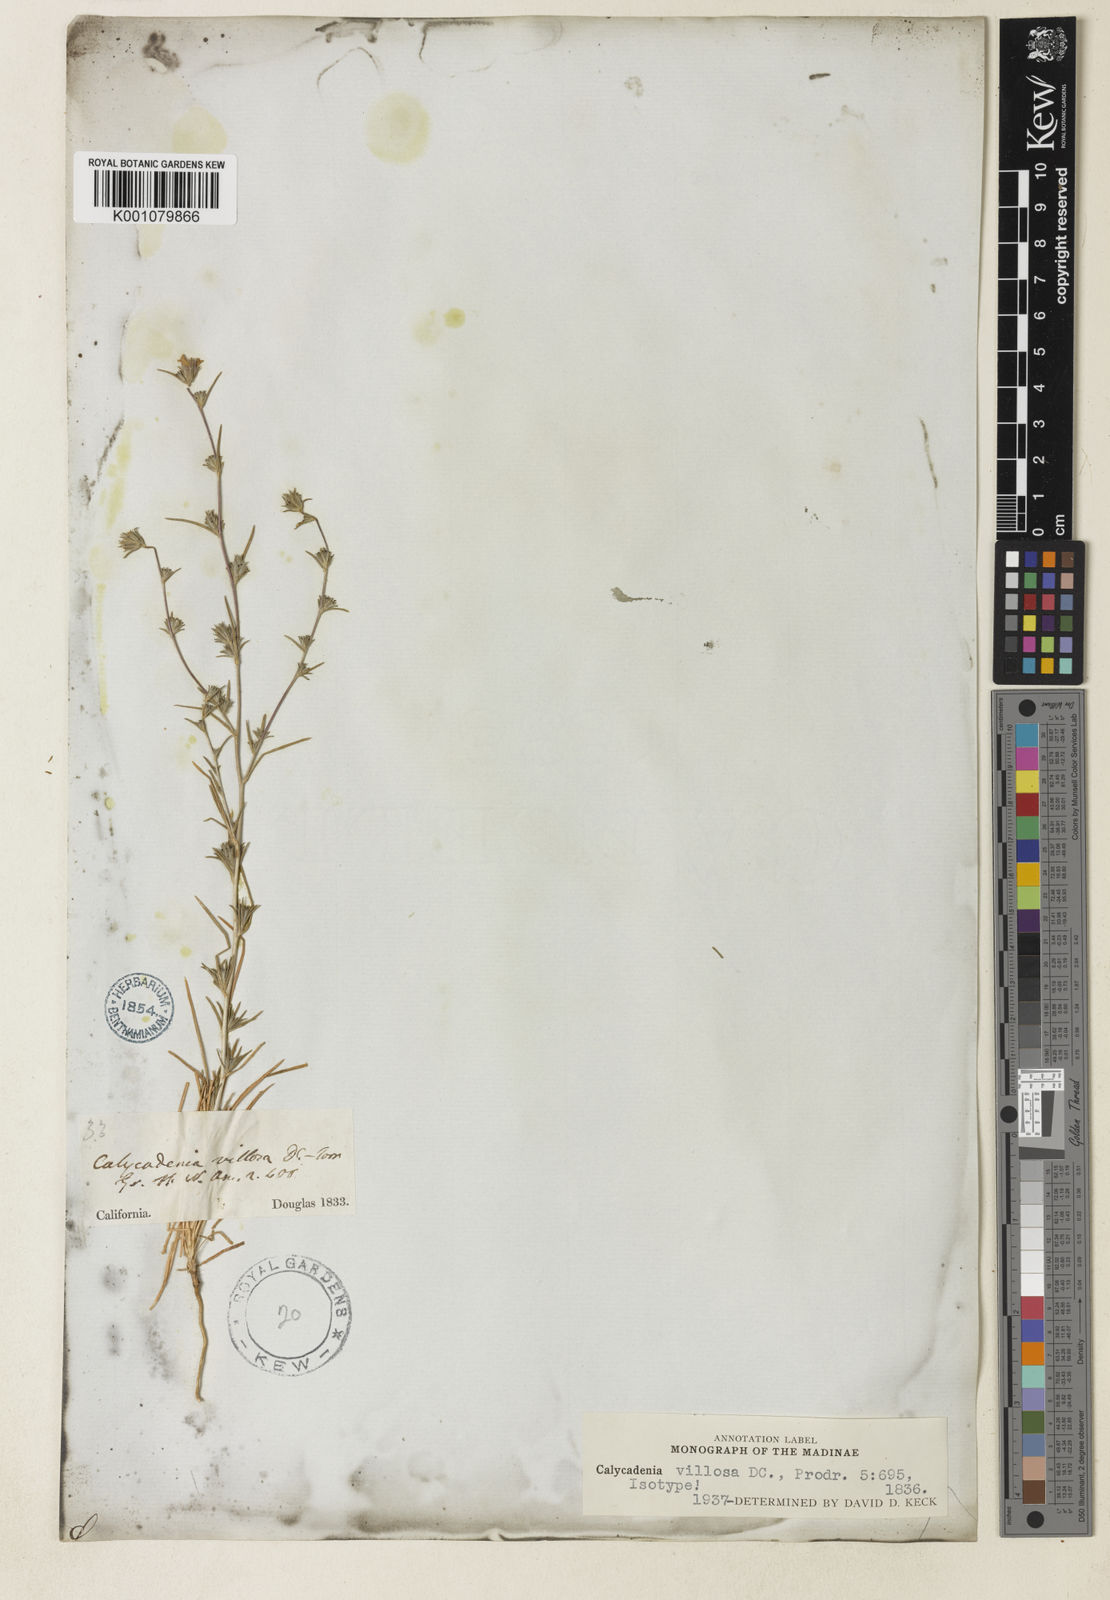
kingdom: Plantae
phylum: Tracheophyta
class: Magnoliopsida
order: Asterales
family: Asteraceae
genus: Calycadenia
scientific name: Calycadenia villosa
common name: Dwarf calycadenia
